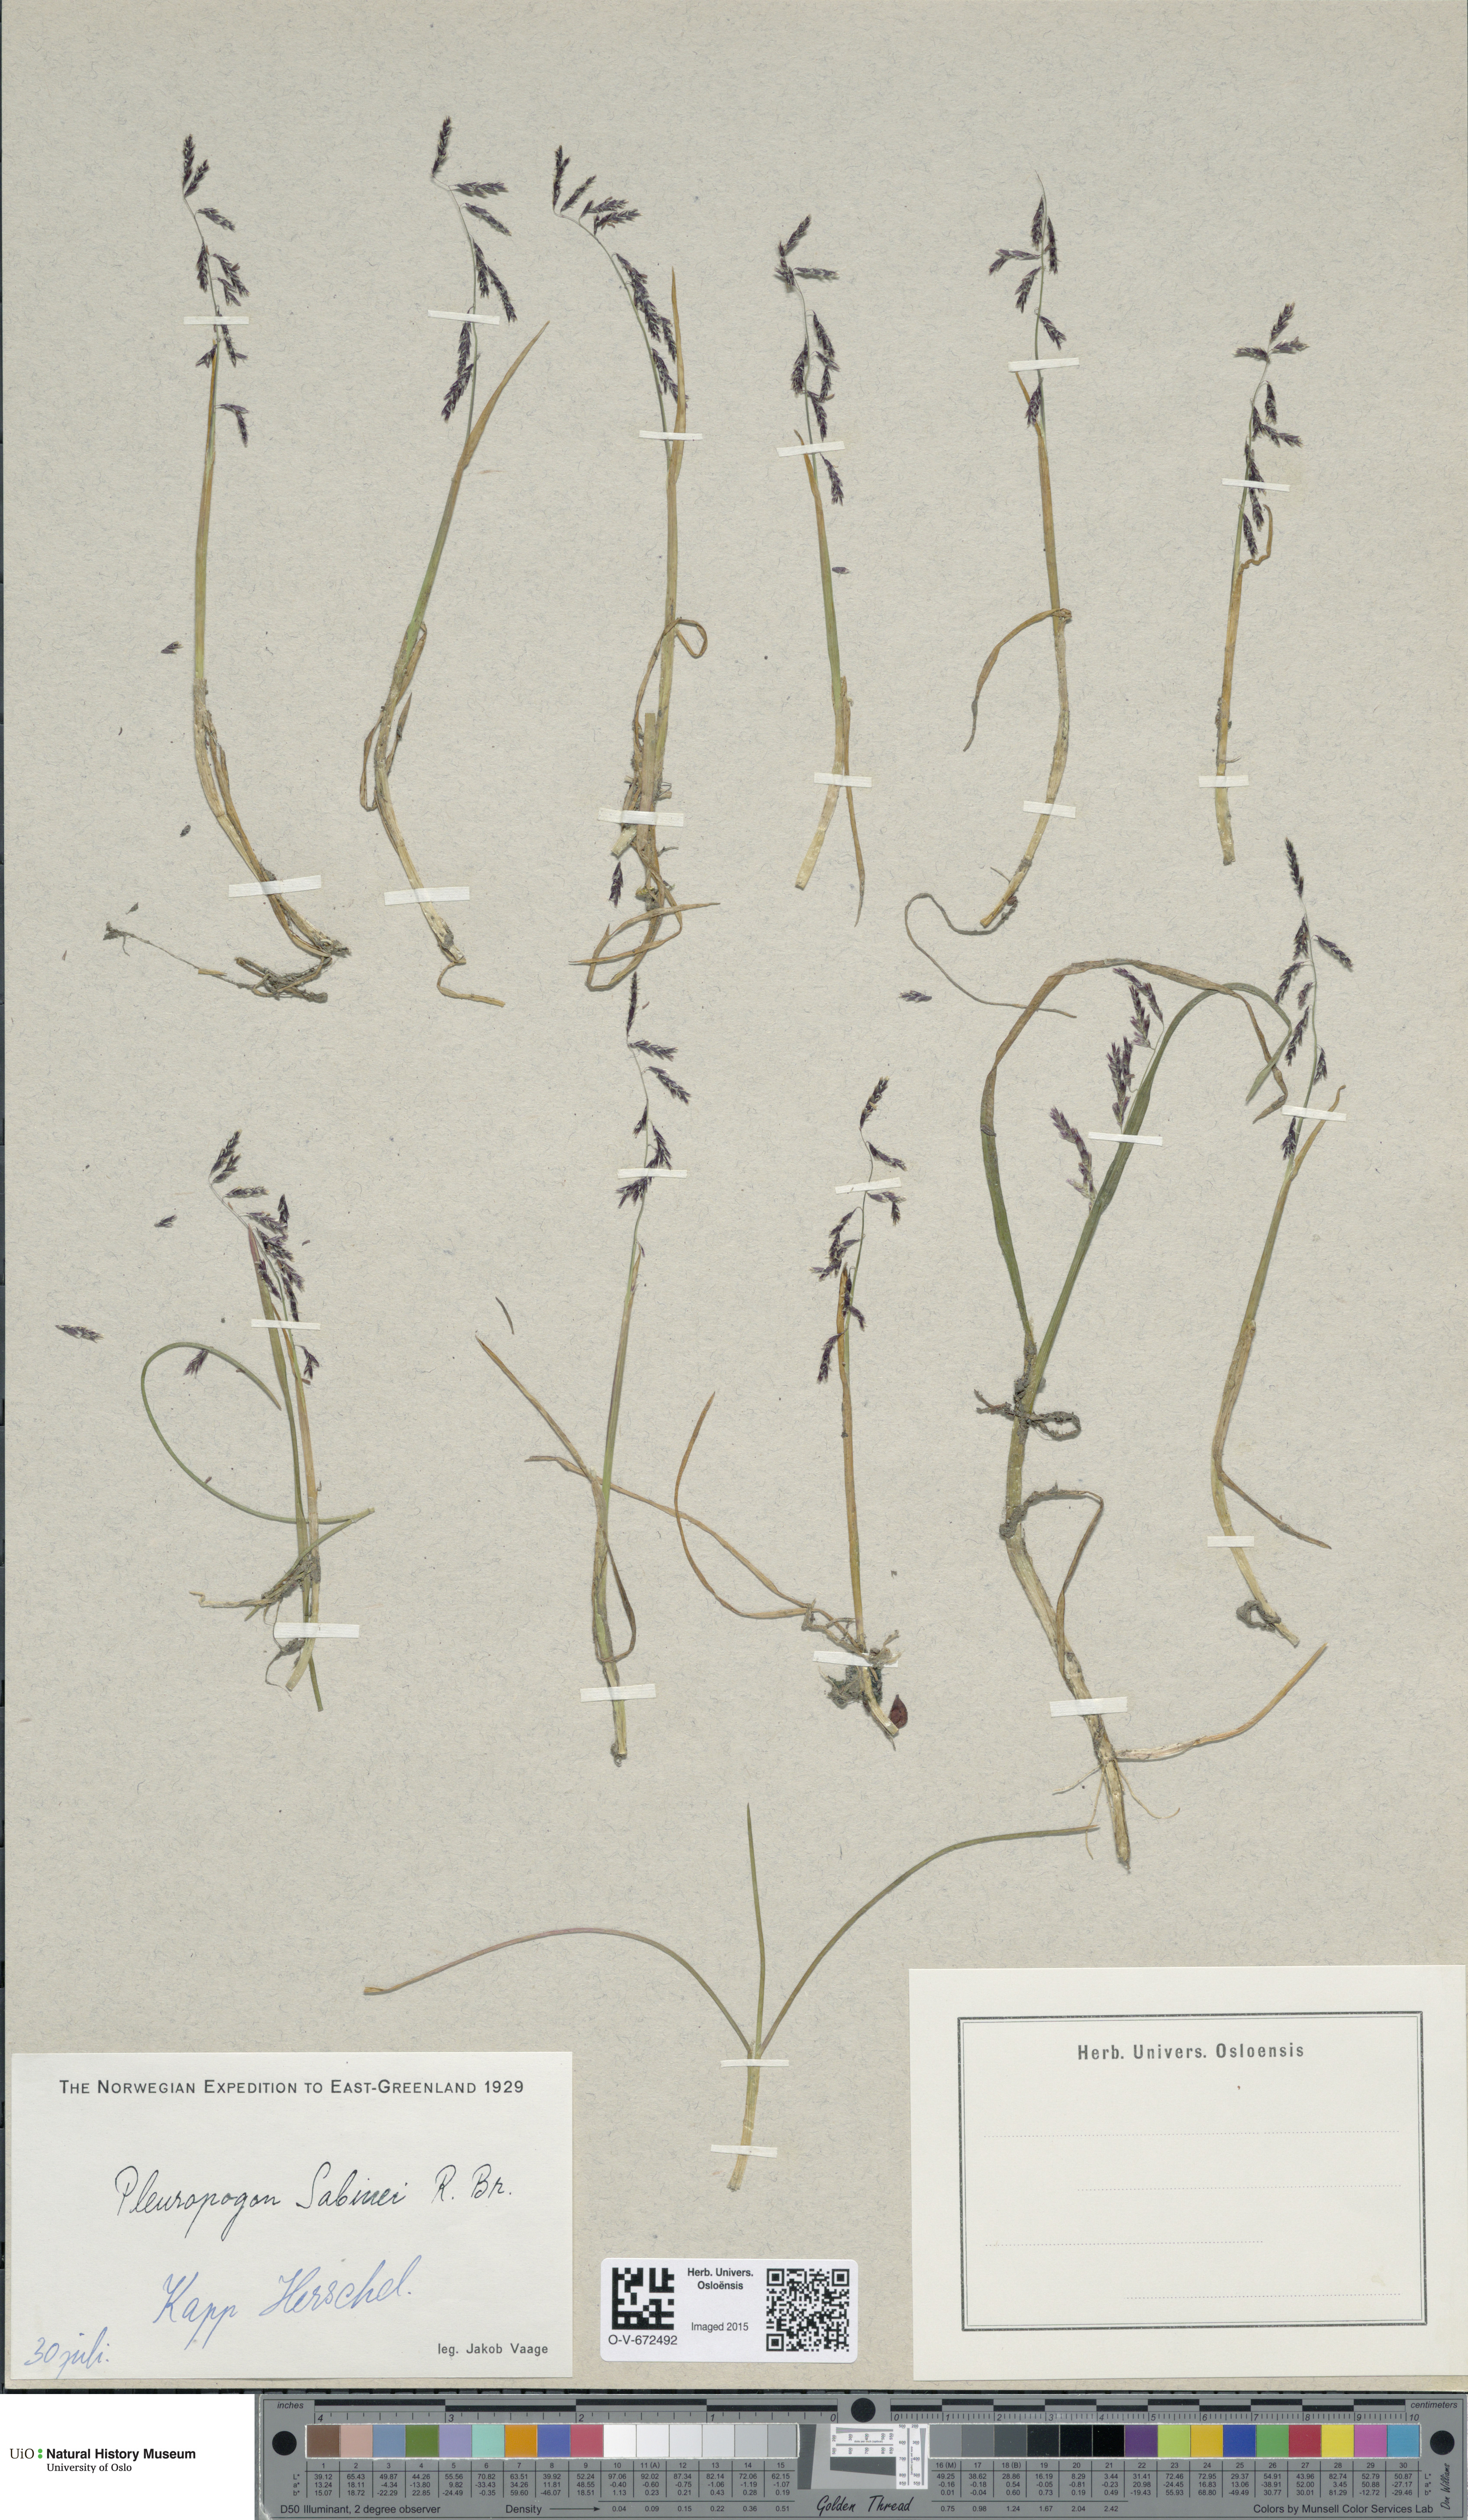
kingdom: Plantae
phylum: Tracheophyta
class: Liliopsida
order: Poales
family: Poaceae
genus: Pleuropogon
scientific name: Pleuropogon sabinei
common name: Sabine's false semaphoregrass
